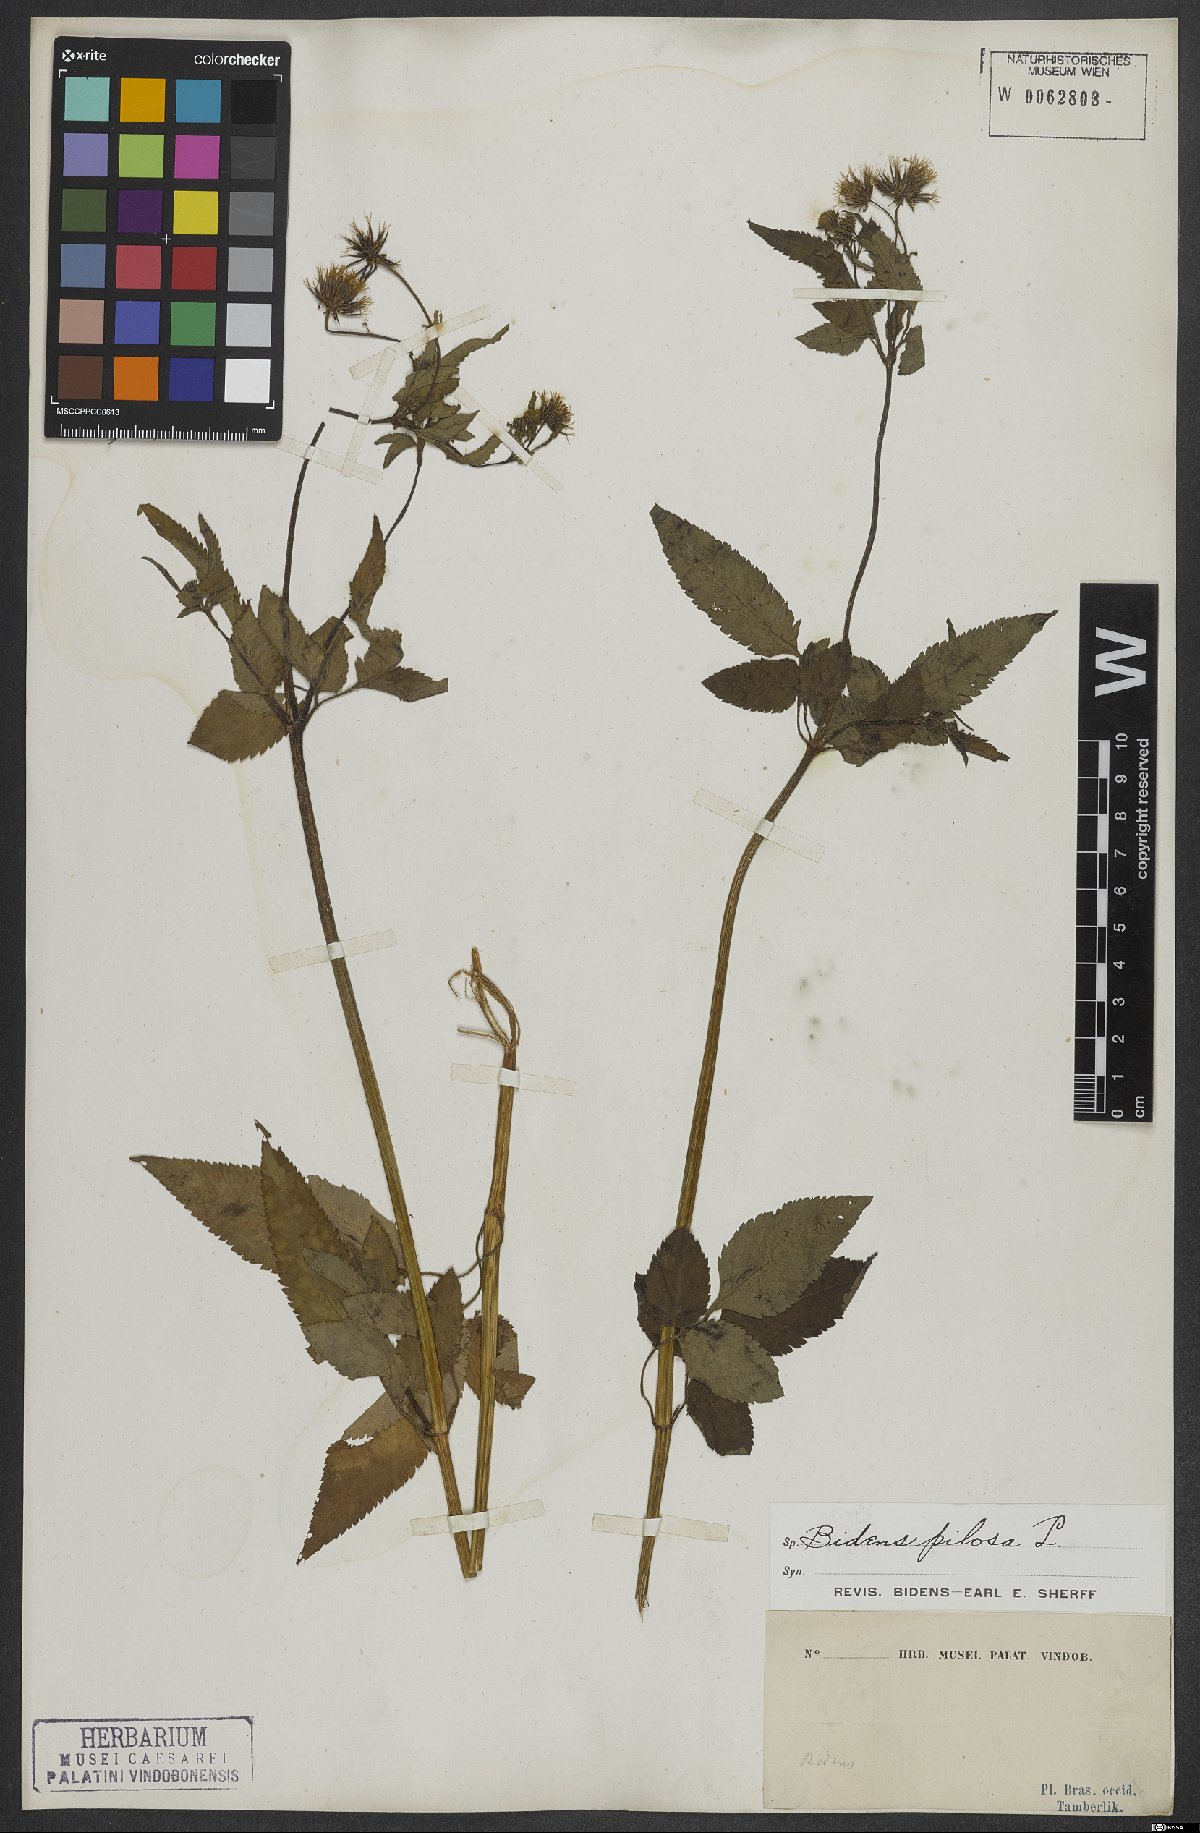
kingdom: Plantae
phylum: Tracheophyta
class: Magnoliopsida
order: Asterales
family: Asteraceae
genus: Bidens
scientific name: Bidens pilosa
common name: Black-jack
